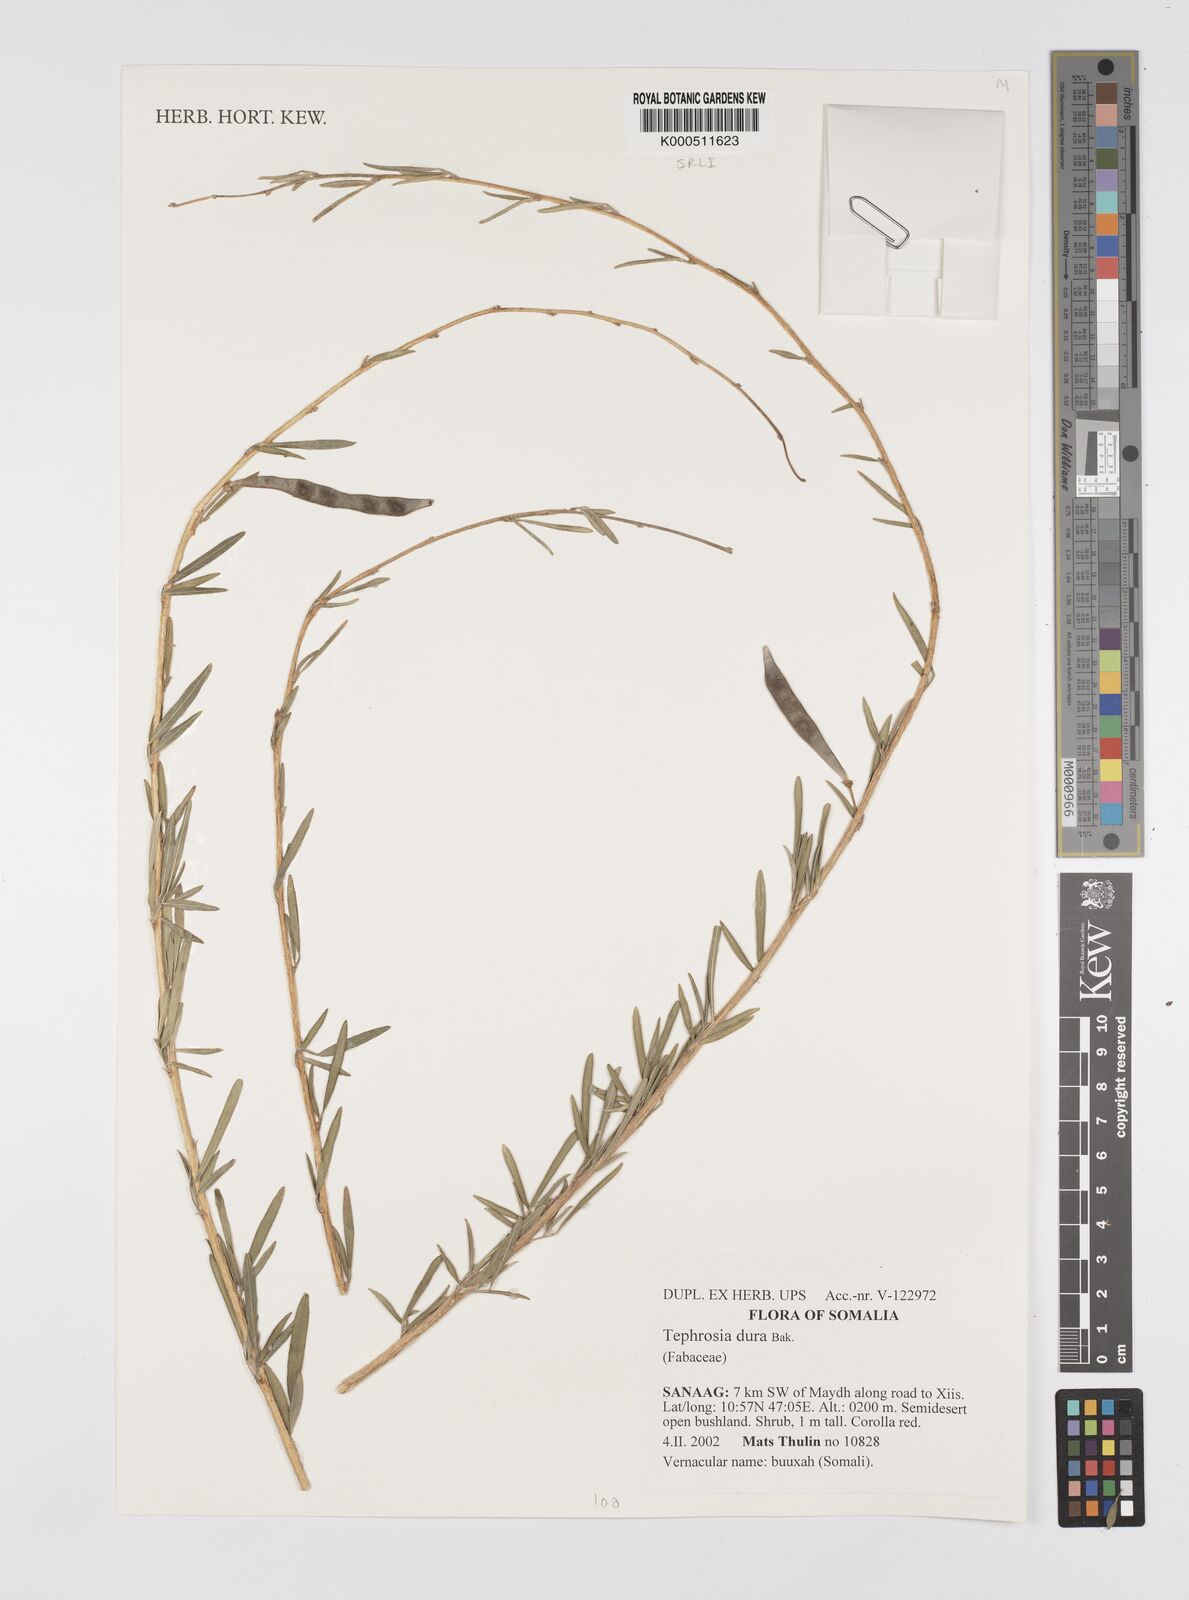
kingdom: Plantae
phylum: Tracheophyta
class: Magnoliopsida
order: Fabales
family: Fabaceae
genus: Tephrosia
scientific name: Tephrosia dura
